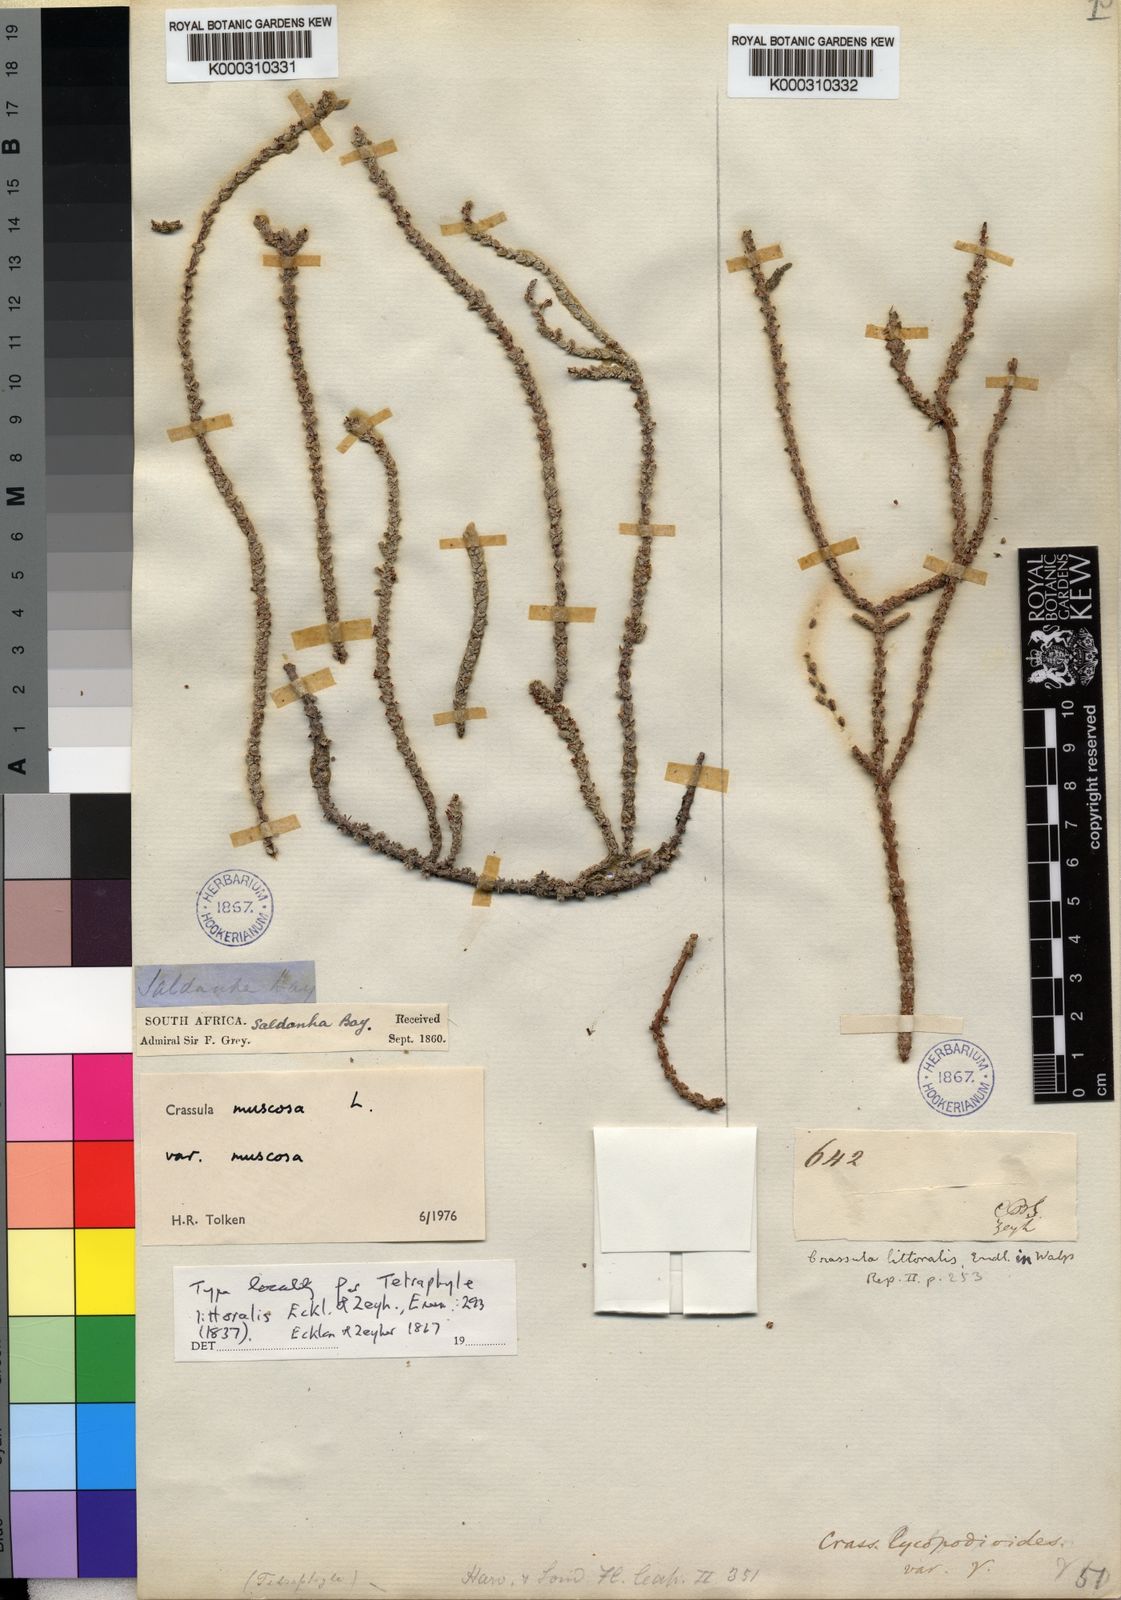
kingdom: Plantae
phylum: Tracheophyta
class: Magnoliopsida
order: Saxifragales
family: Crassulaceae
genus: Crassula
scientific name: Crassula muscosa
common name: Toy-cypress
